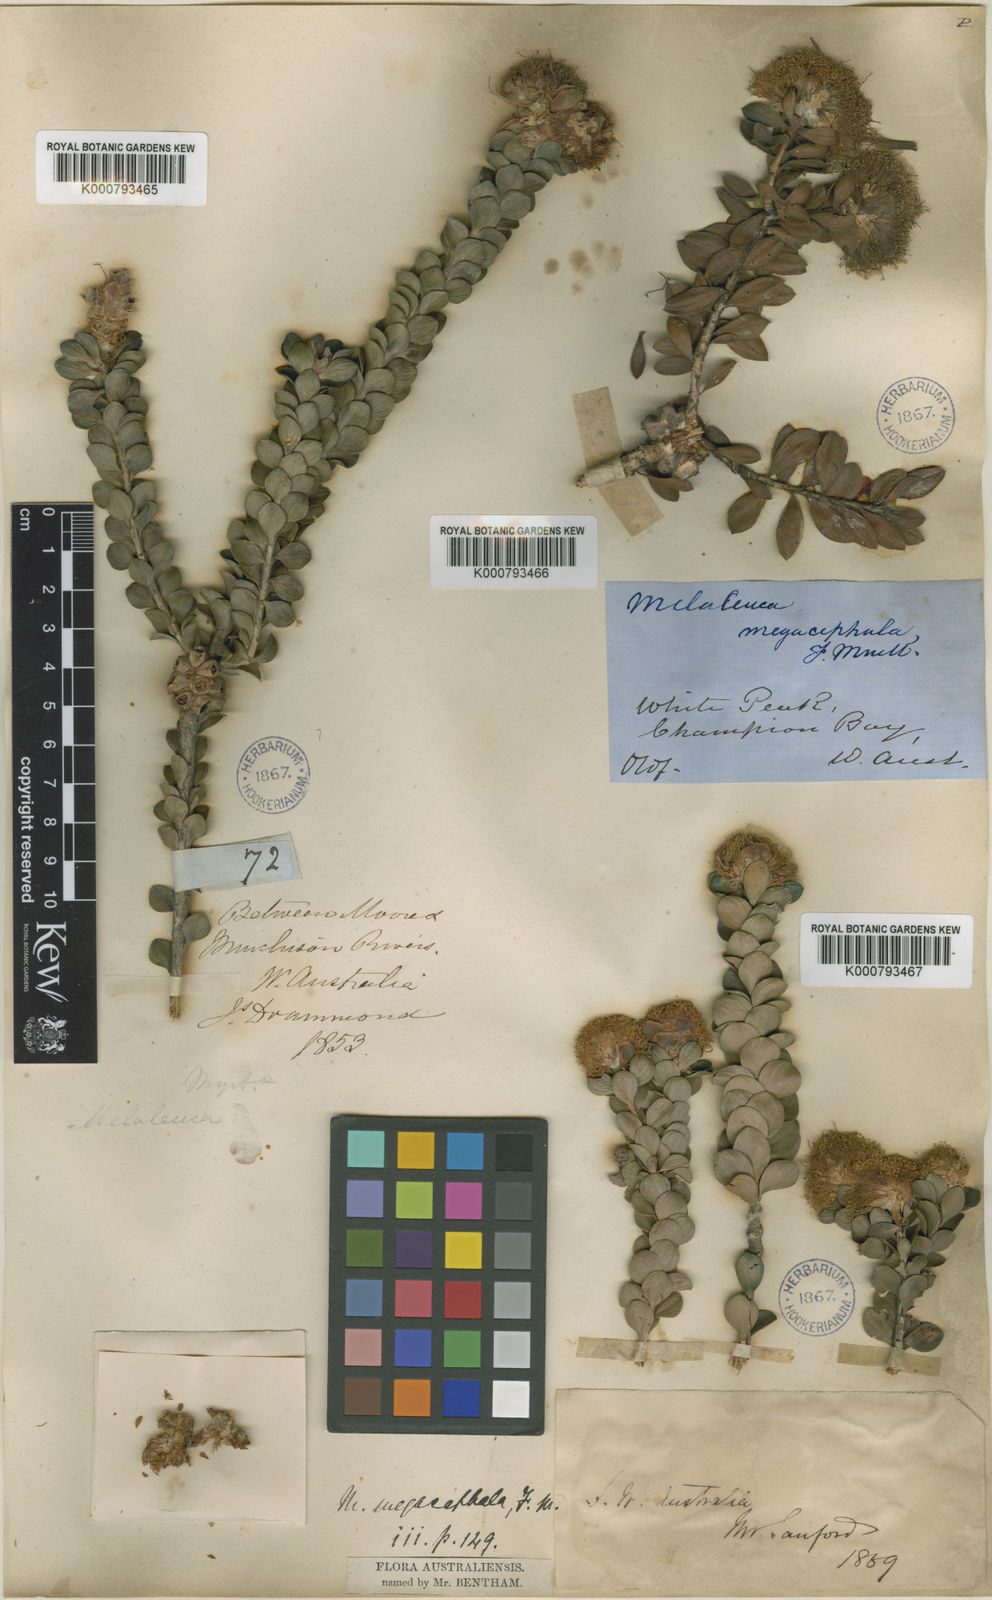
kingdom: Plantae
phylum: Tracheophyta
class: Magnoliopsida
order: Myrtales
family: Myrtaceae
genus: Melaleuca
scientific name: Melaleuca megacephala
